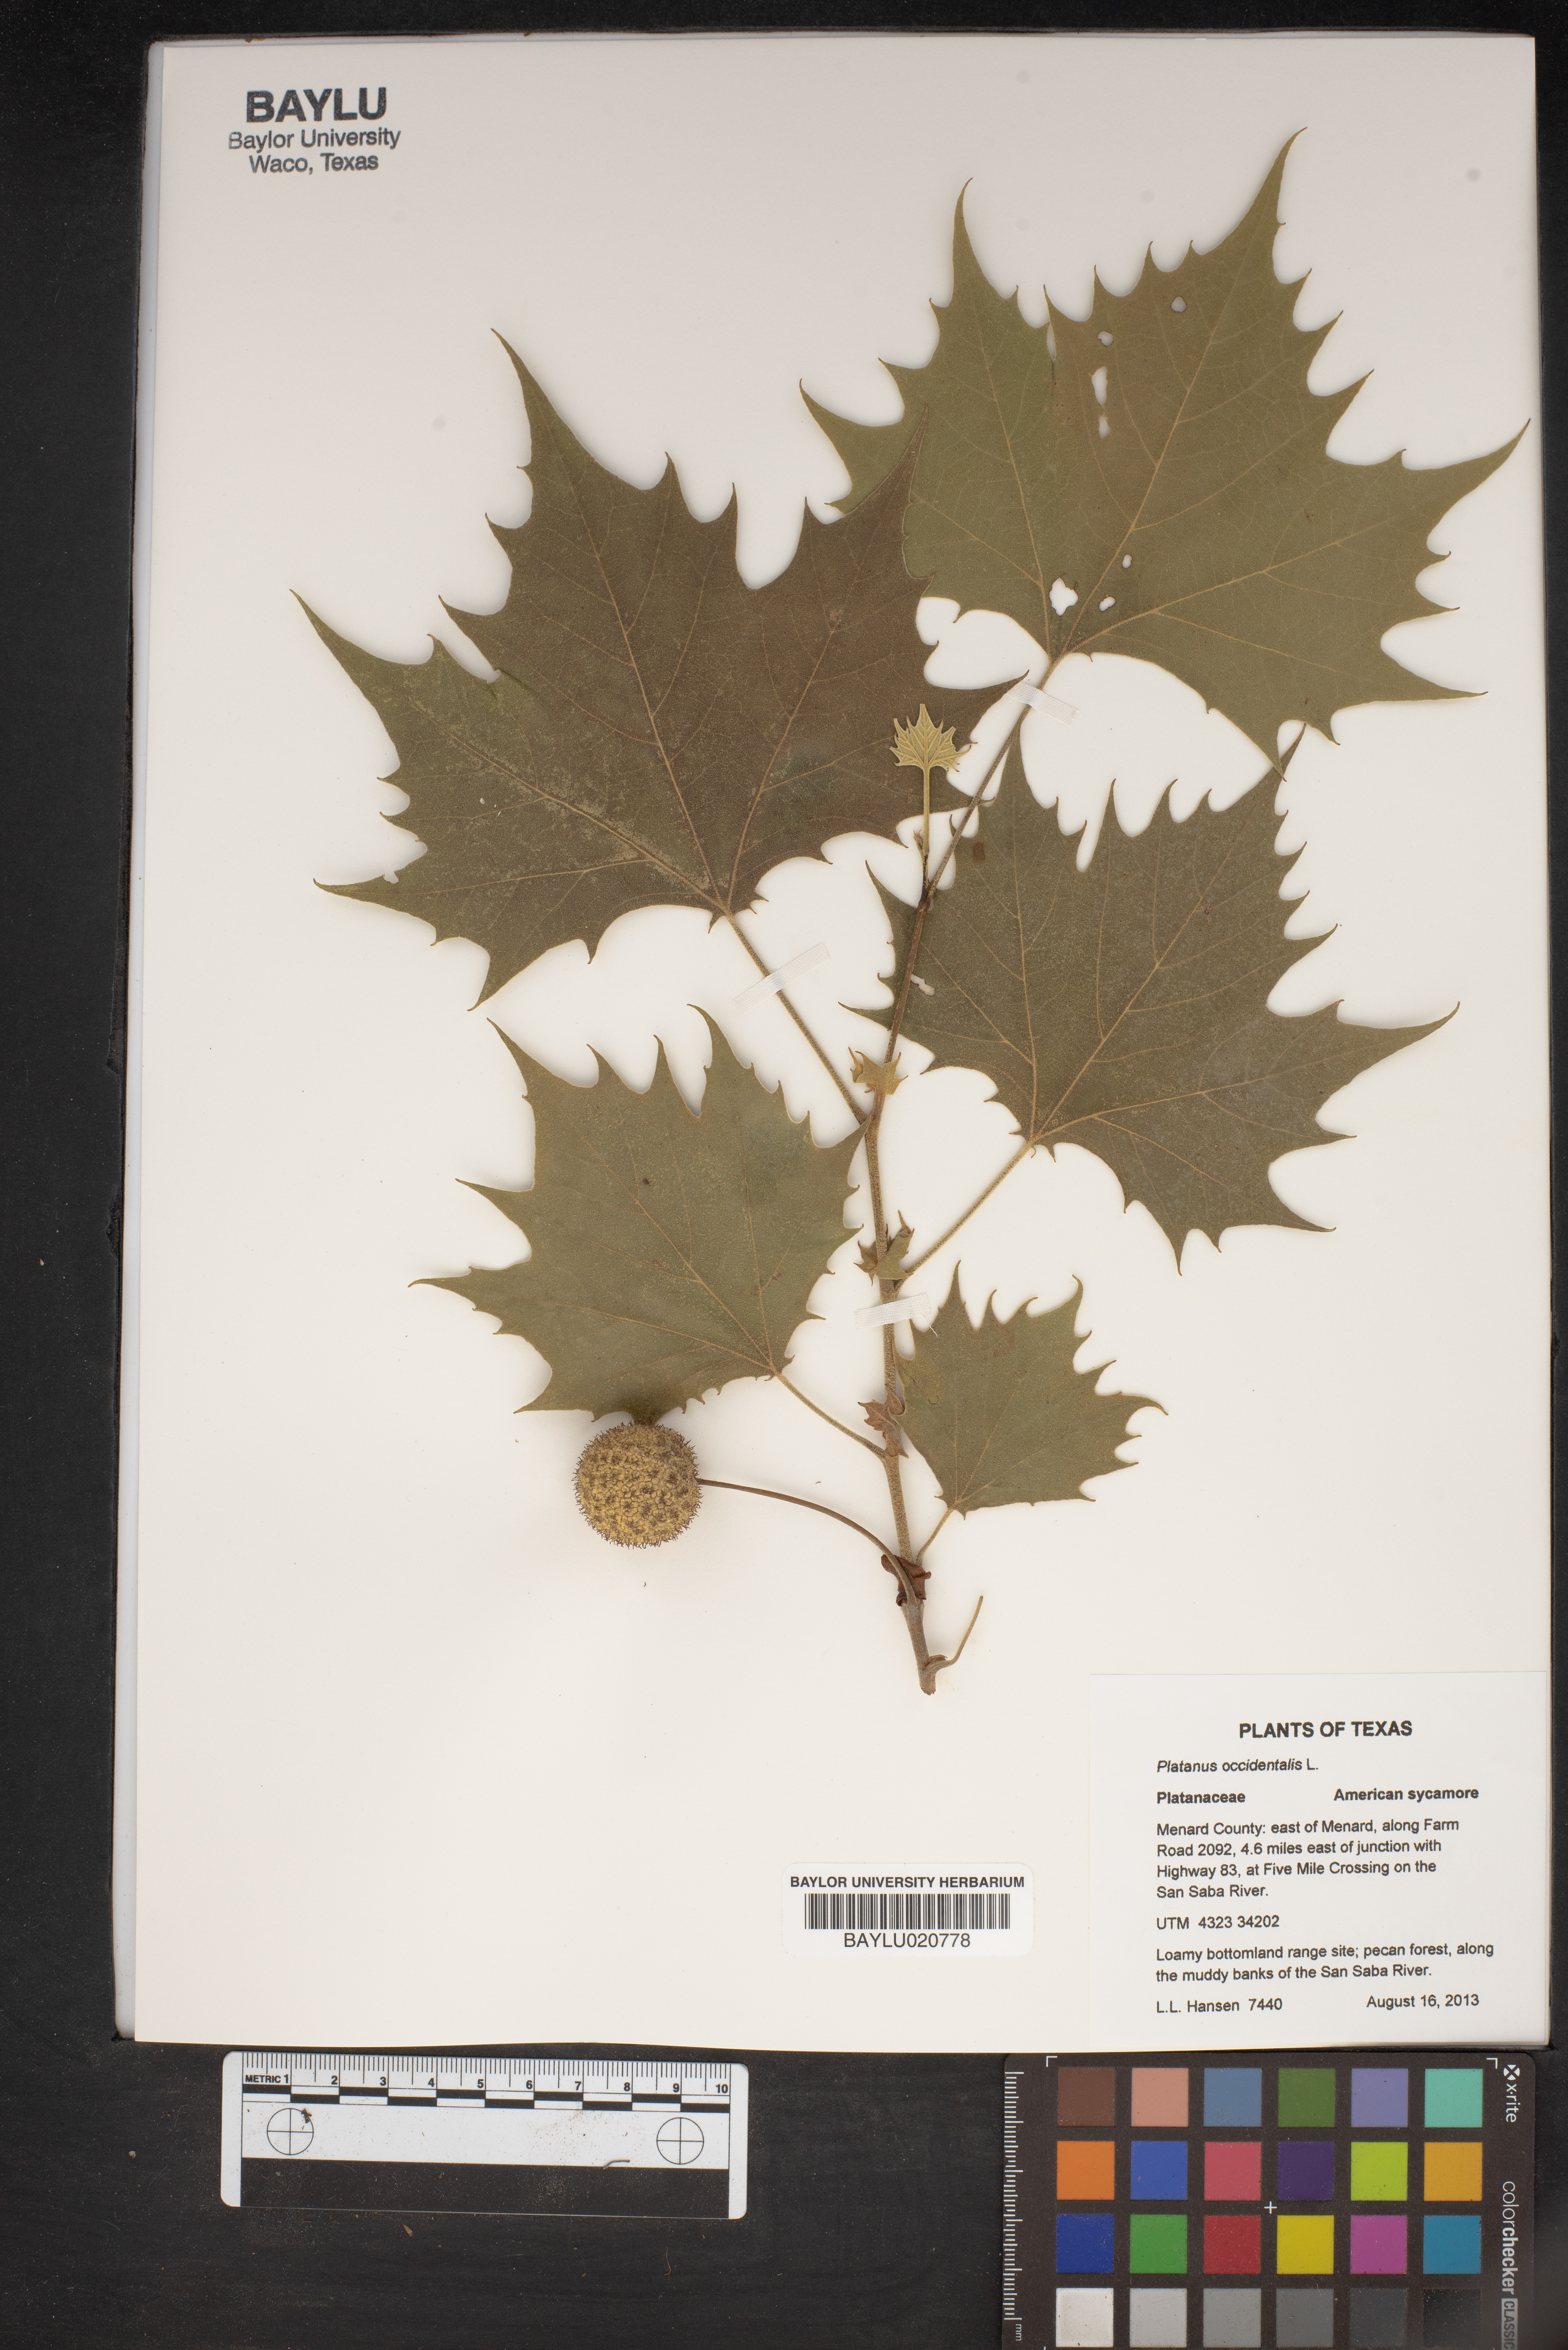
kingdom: Plantae
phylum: Tracheophyta
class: Magnoliopsida
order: Proteales
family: Platanaceae
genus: Platanus
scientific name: Platanus occidentalis
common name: American sycamore
